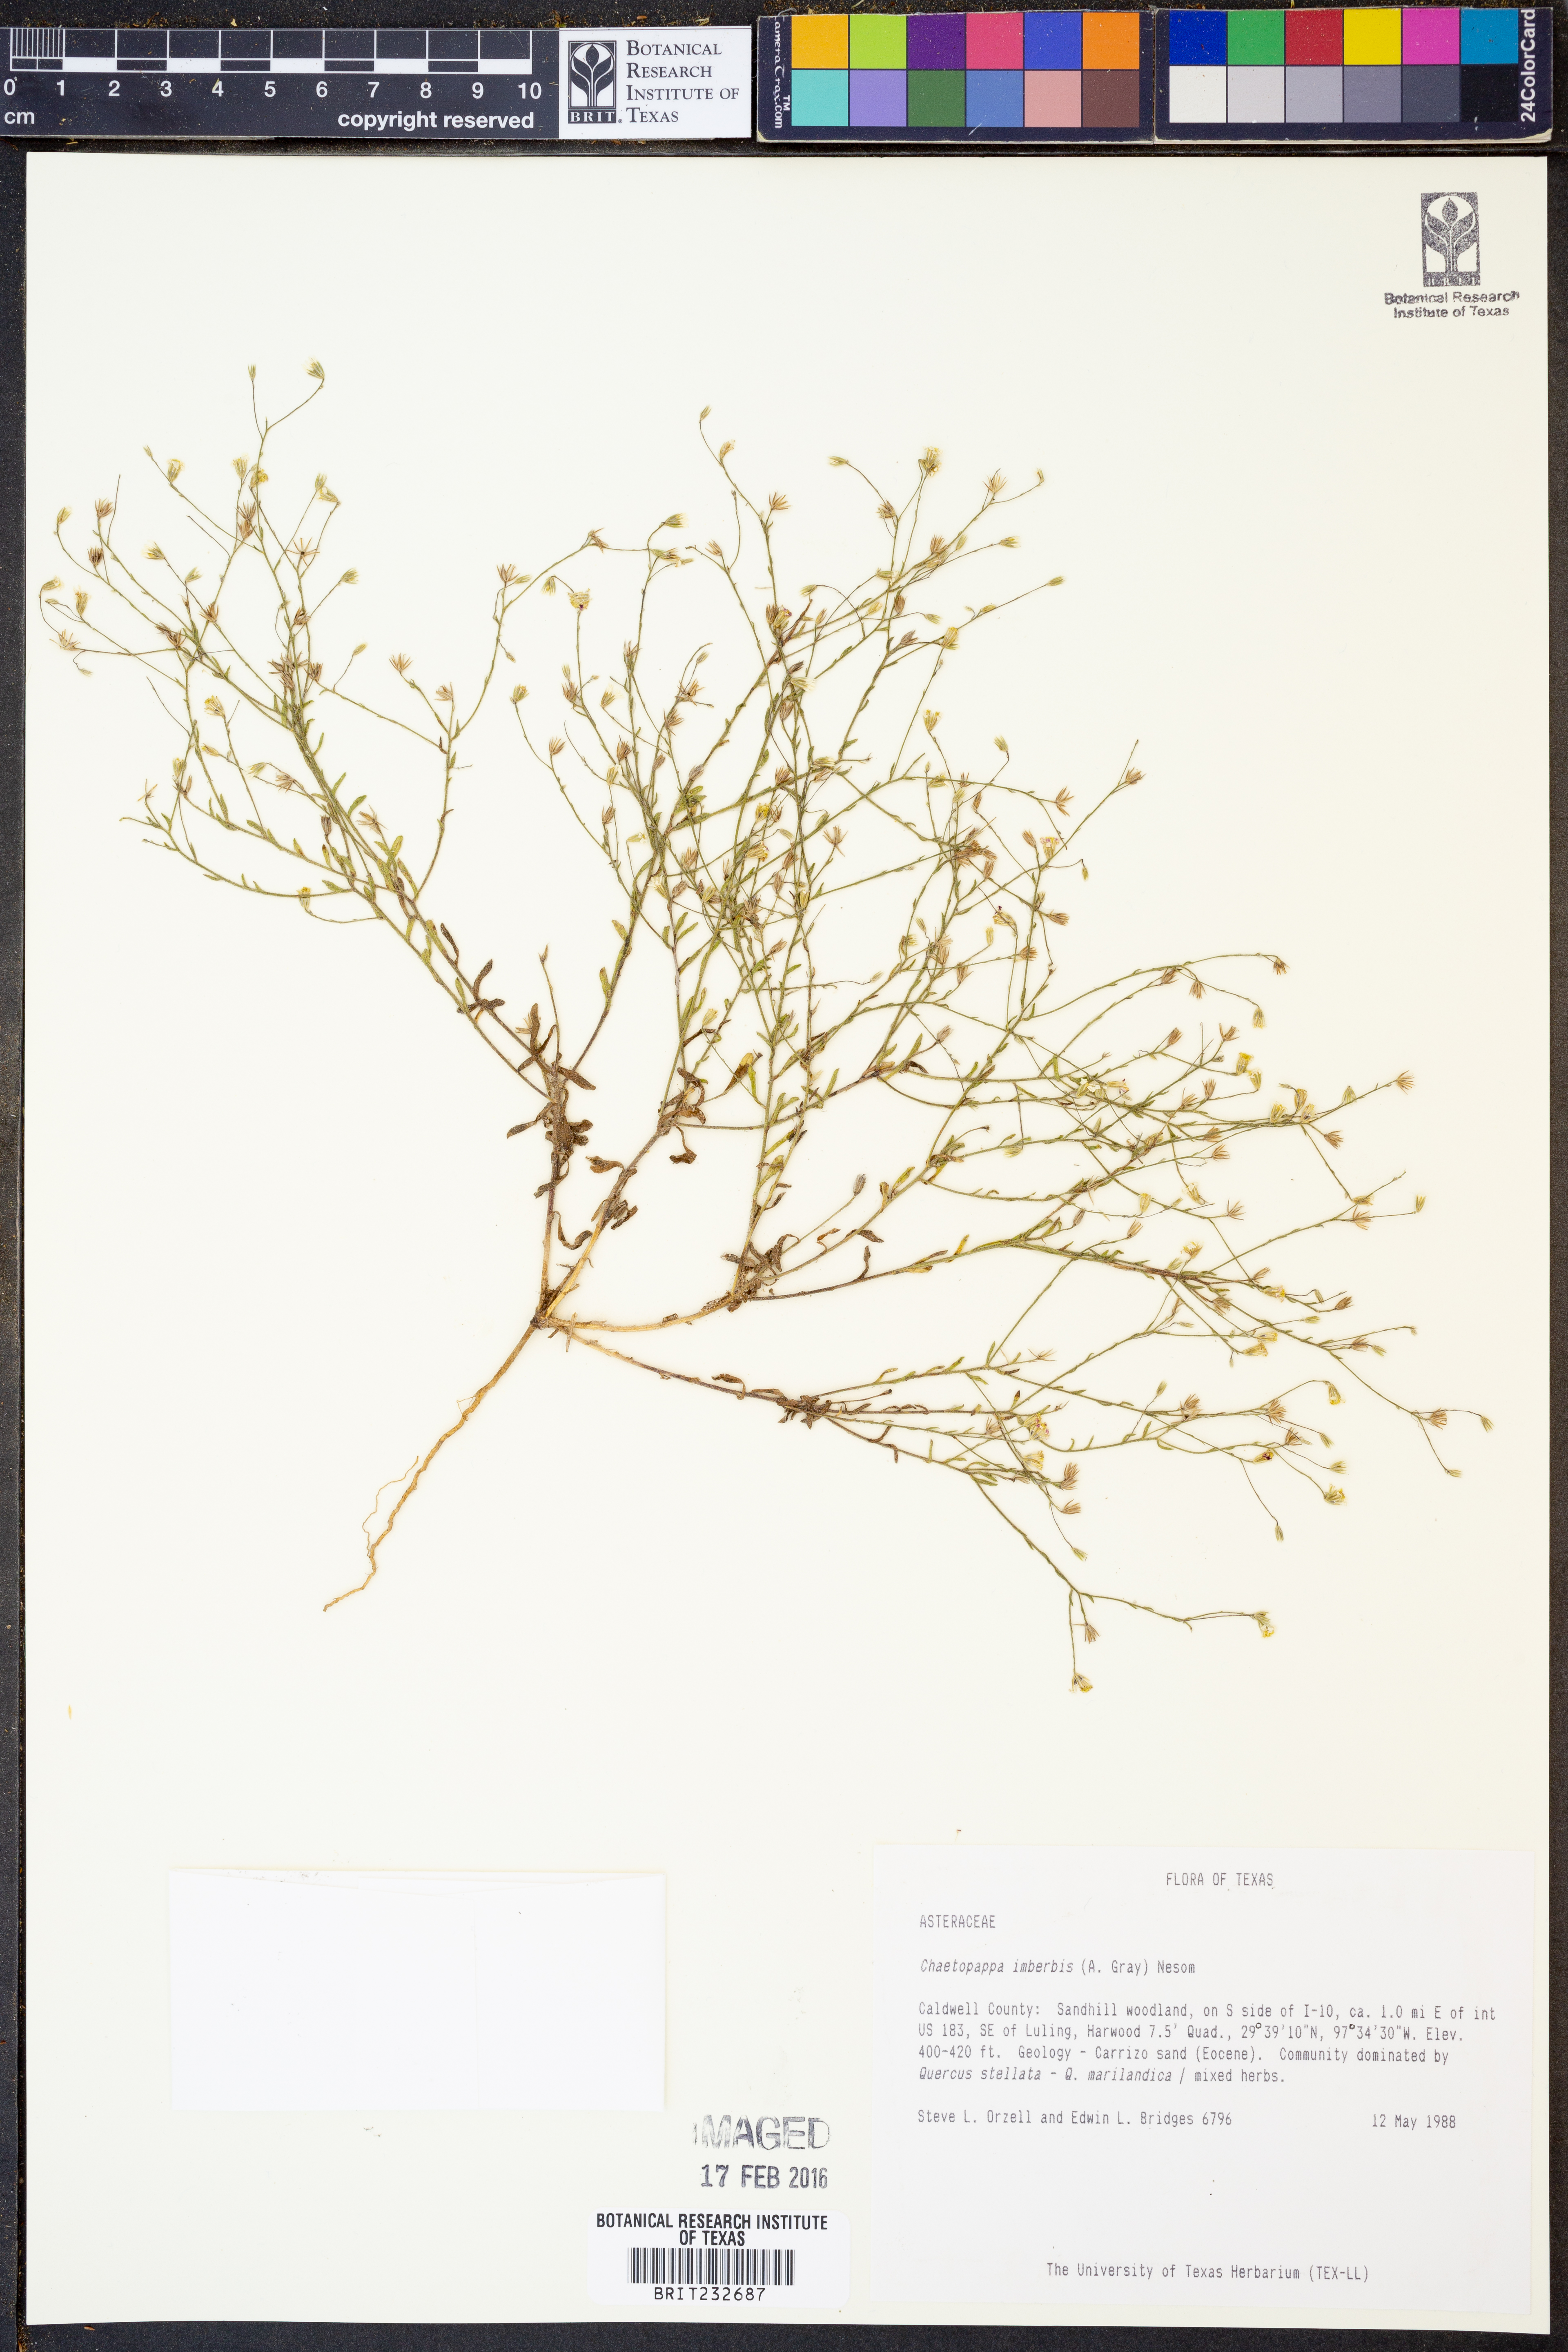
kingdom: Plantae
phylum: Tracheophyta
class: Magnoliopsida
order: Asterales
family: Asteraceae
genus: Chaetopappa
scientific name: Chaetopappa imberbis
